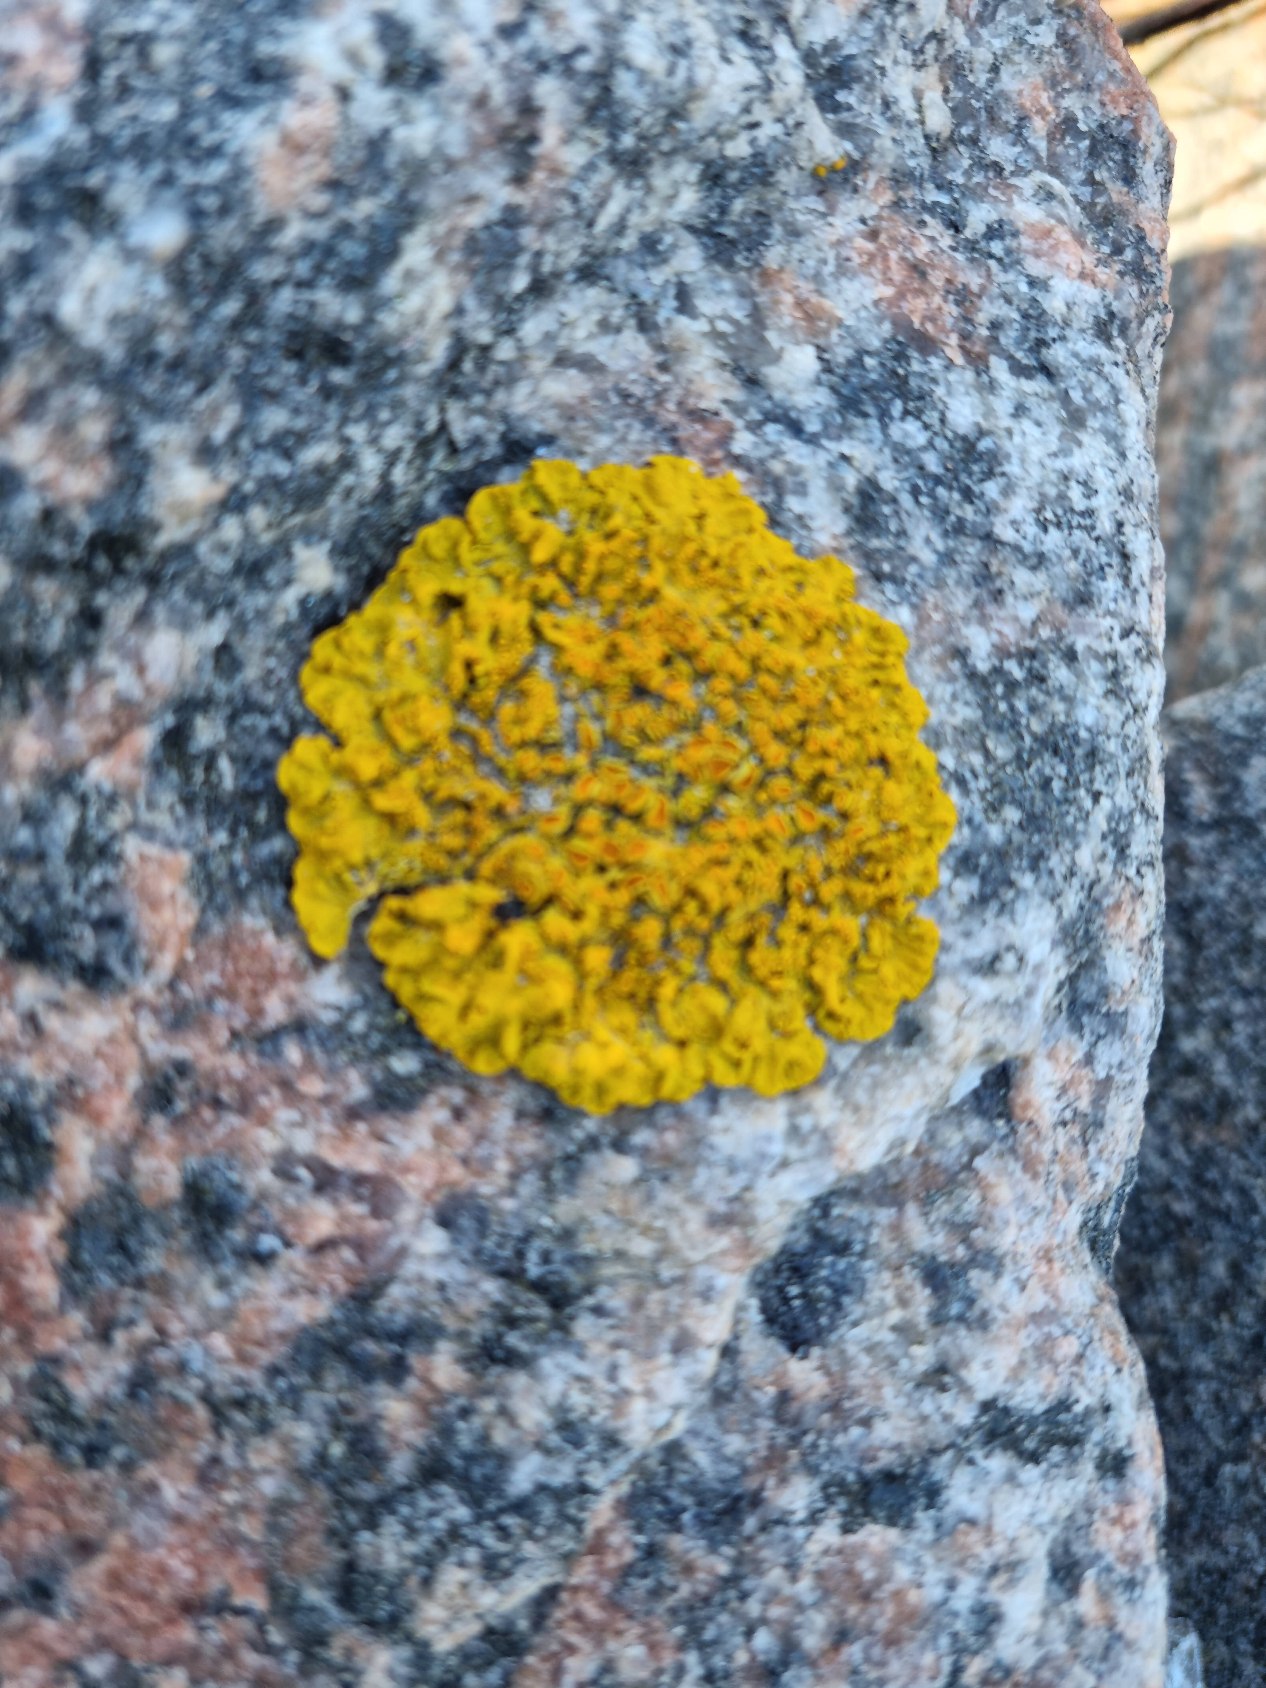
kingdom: Fungi
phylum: Ascomycota
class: Lecanoromycetes
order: Teloschistales
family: Teloschistaceae
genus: Xanthoria
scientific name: Xanthoria parietina
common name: Almindelig væggelav
